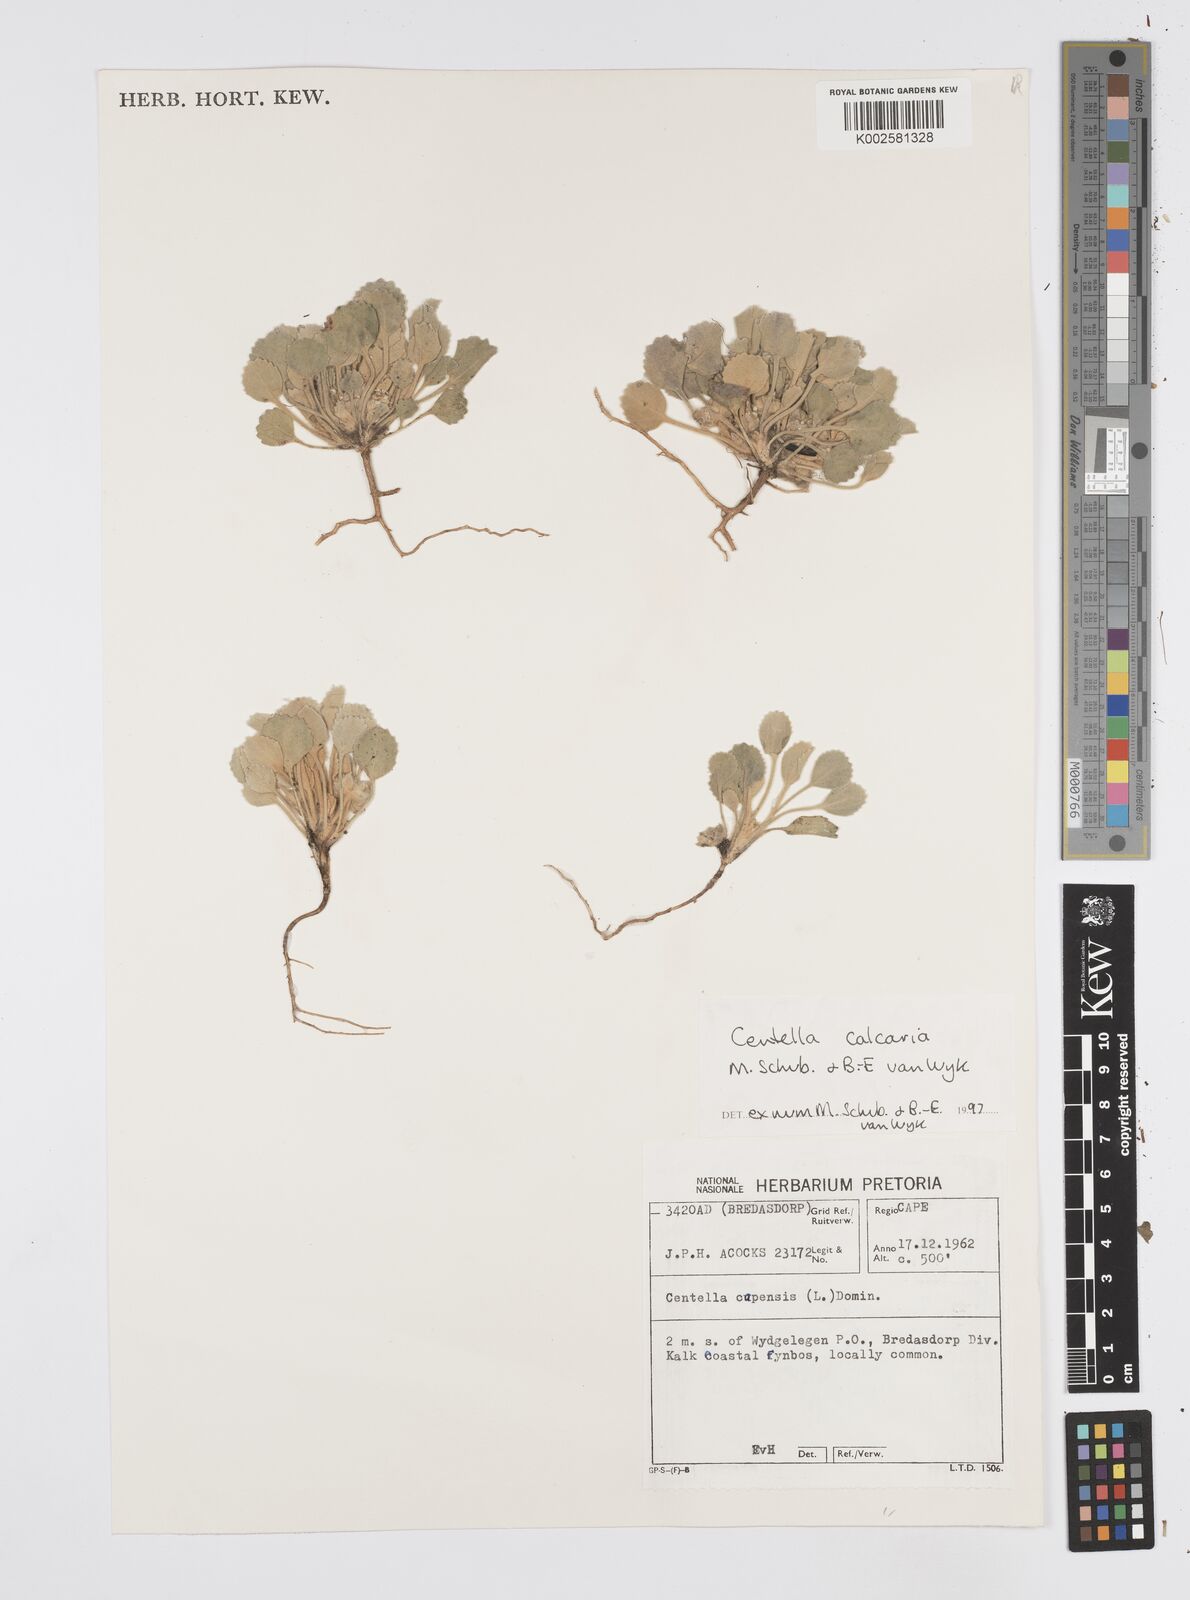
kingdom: Plantae
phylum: Tracheophyta
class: Magnoliopsida
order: Apiales
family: Apiaceae
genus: Centella
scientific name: Centella calcaria
